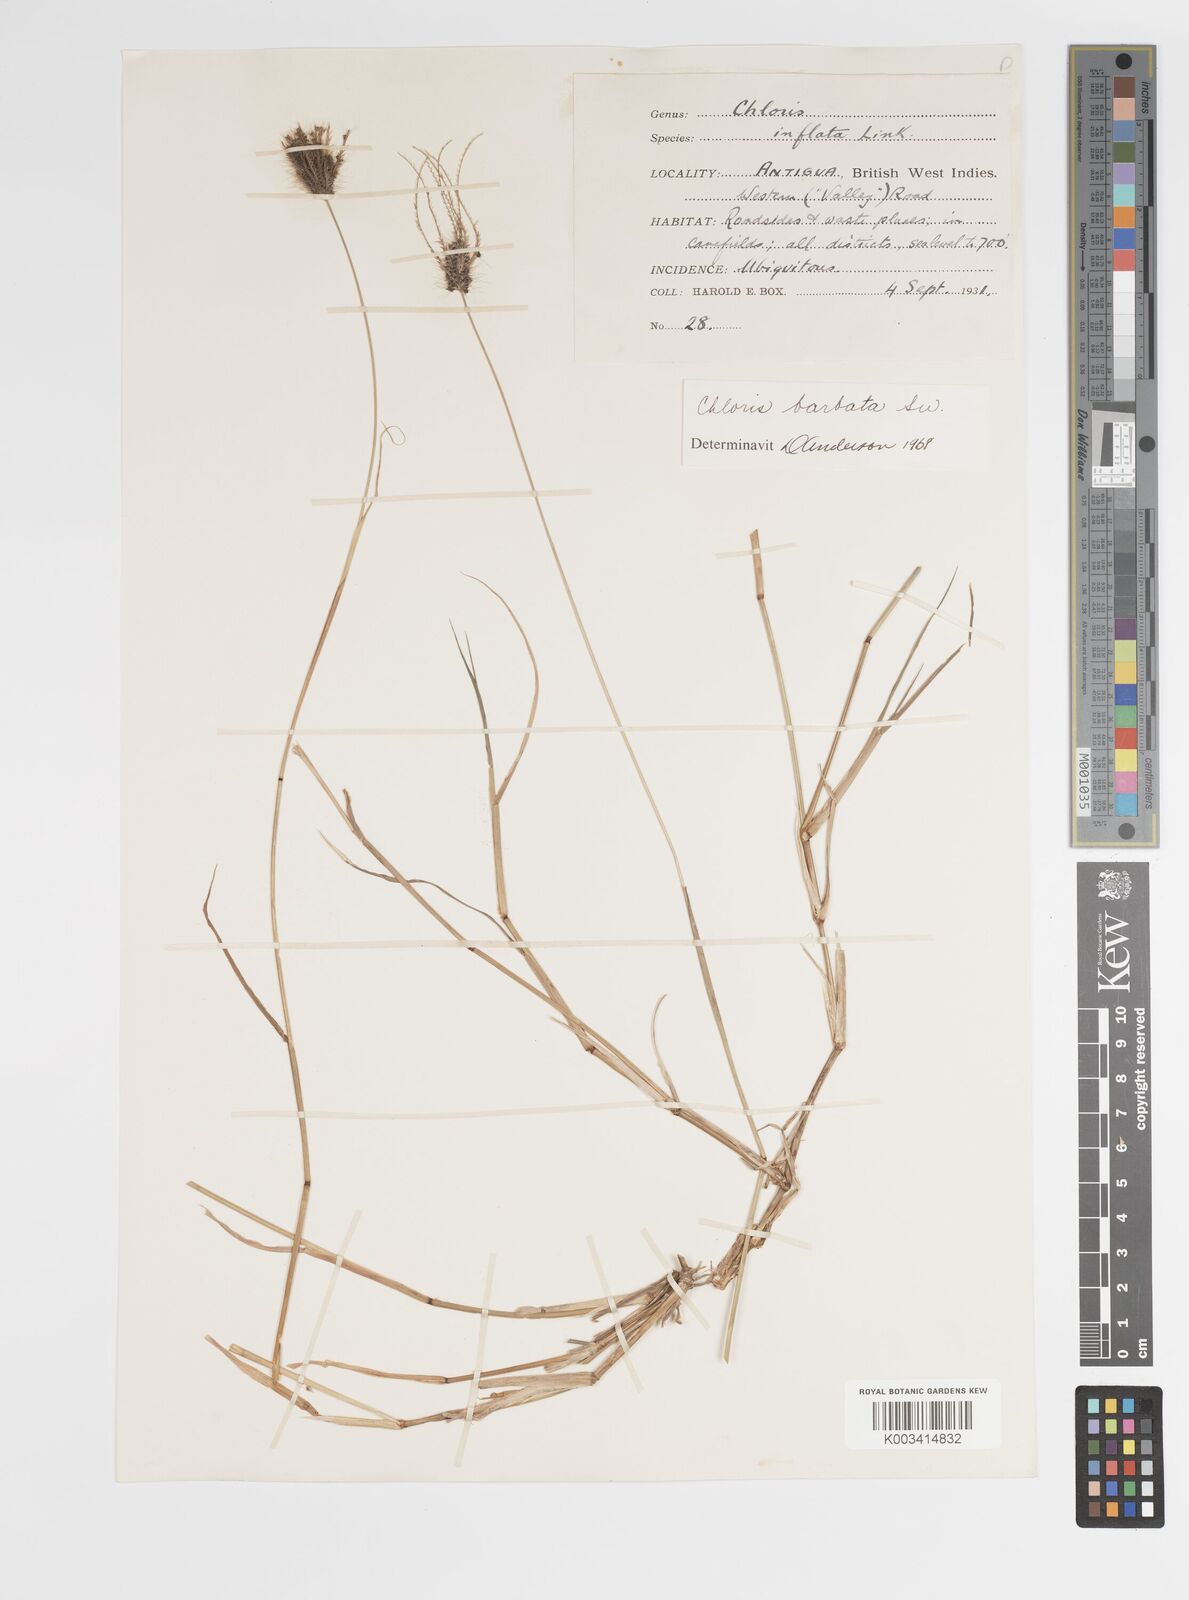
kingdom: Plantae
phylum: Tracheophyta
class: Liliopsida
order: Poales
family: Poaceae
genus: Chloris
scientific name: Chloris barbata
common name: Swollen fingergrass
